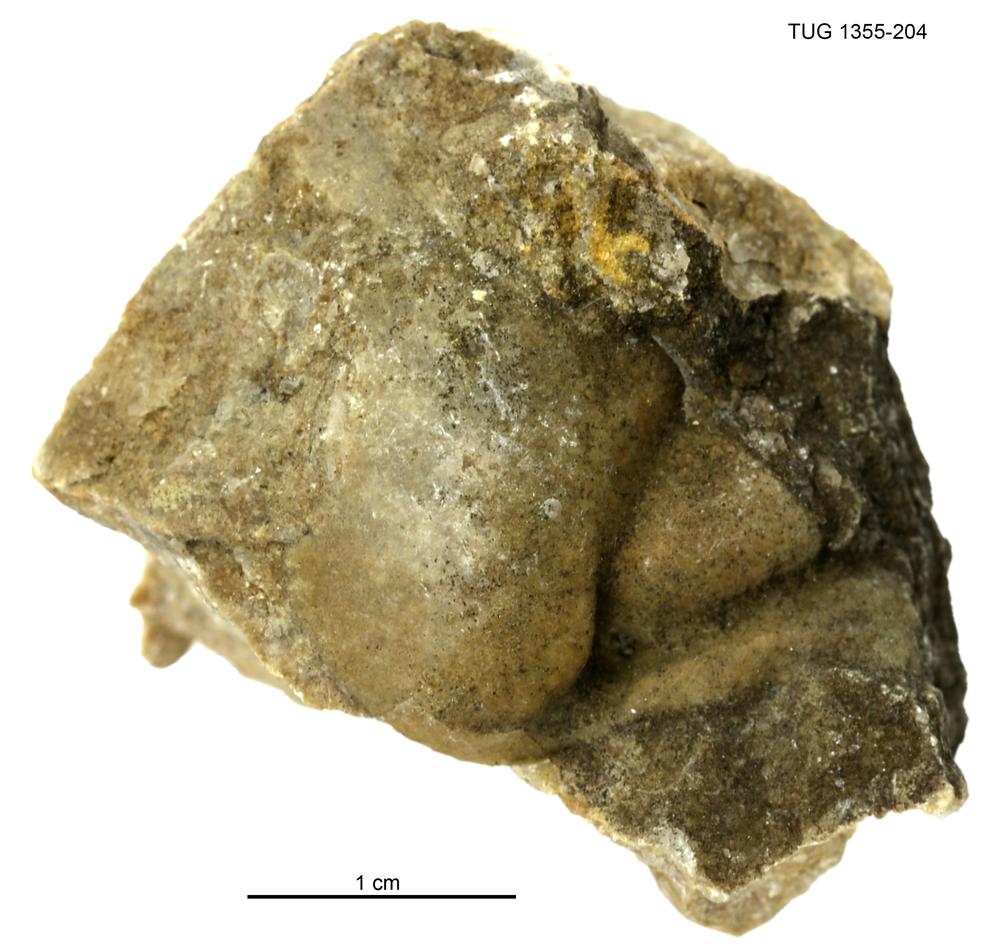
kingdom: Animalia
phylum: Arthropoda
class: Trilobita
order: Phacopida
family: Pterygometopidae
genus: Chasmops
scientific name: Chasmops macrourus
